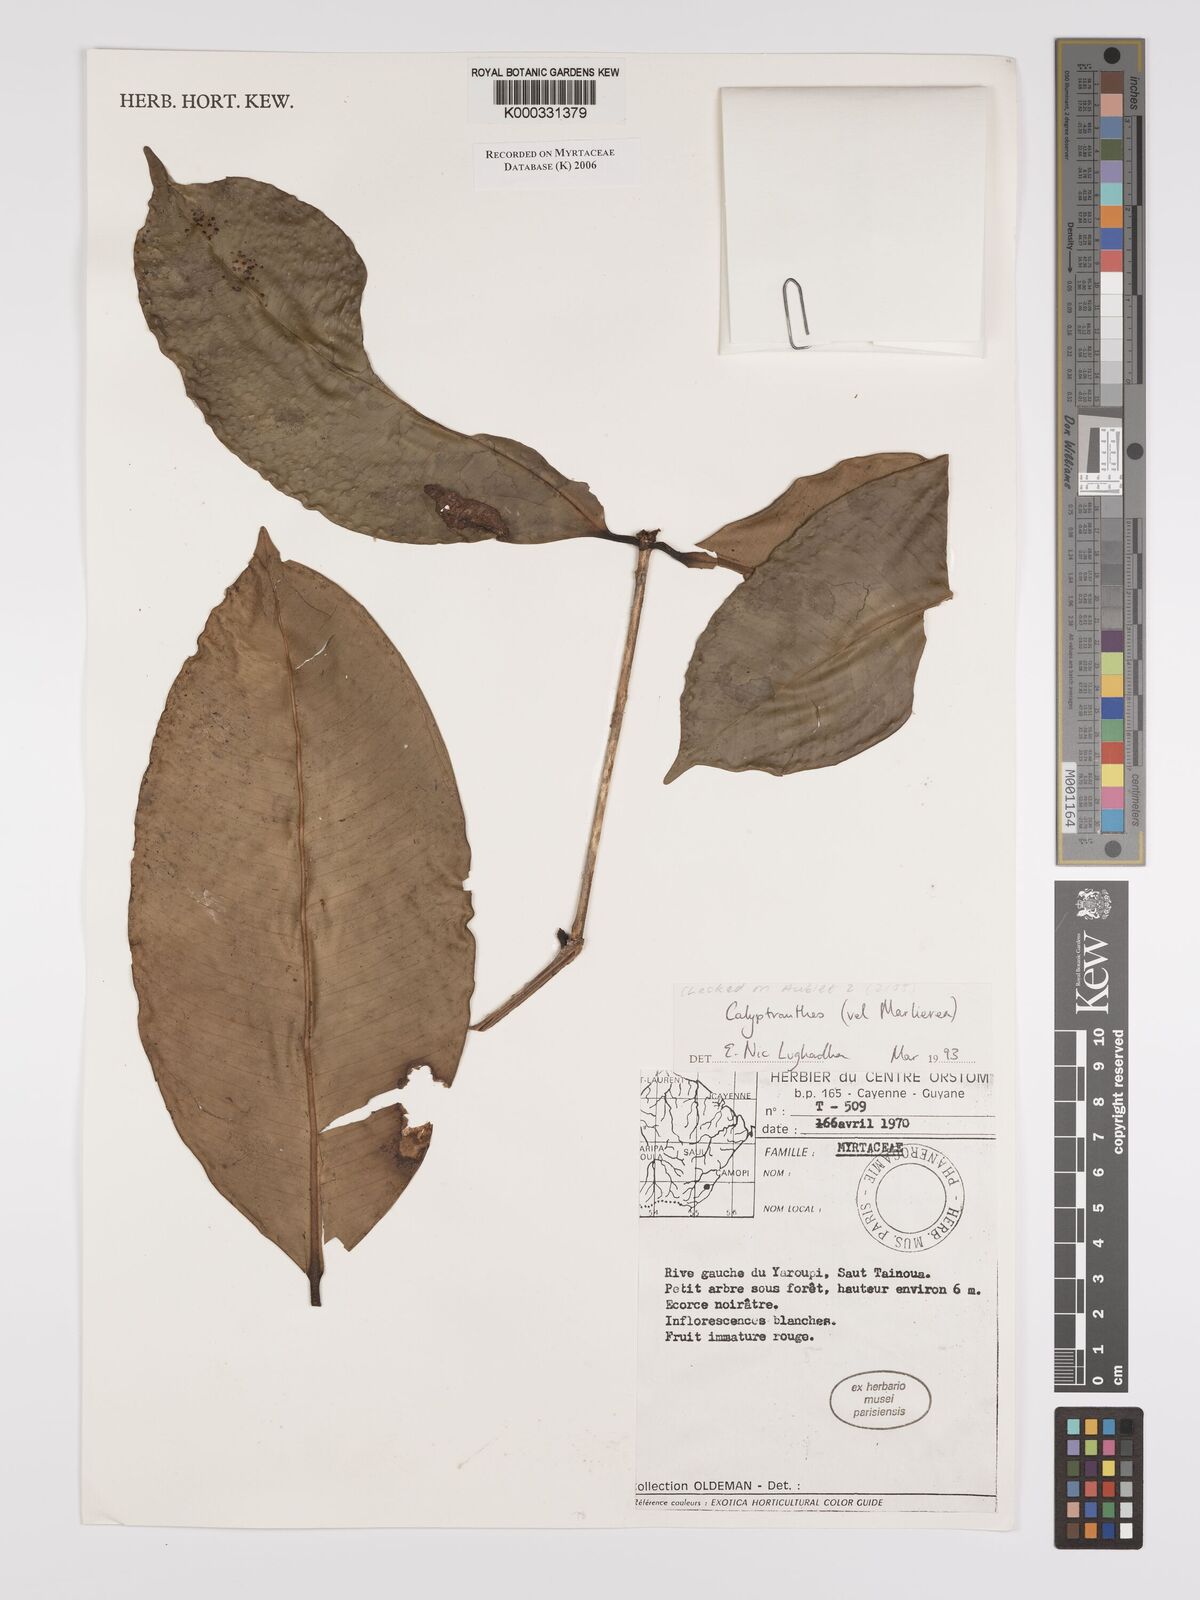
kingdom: Plantae
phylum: Tracheophyta
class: Magnoliopsida
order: Myrtales
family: Myrtaceae
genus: Calyptranthes
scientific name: Calyptranthes
